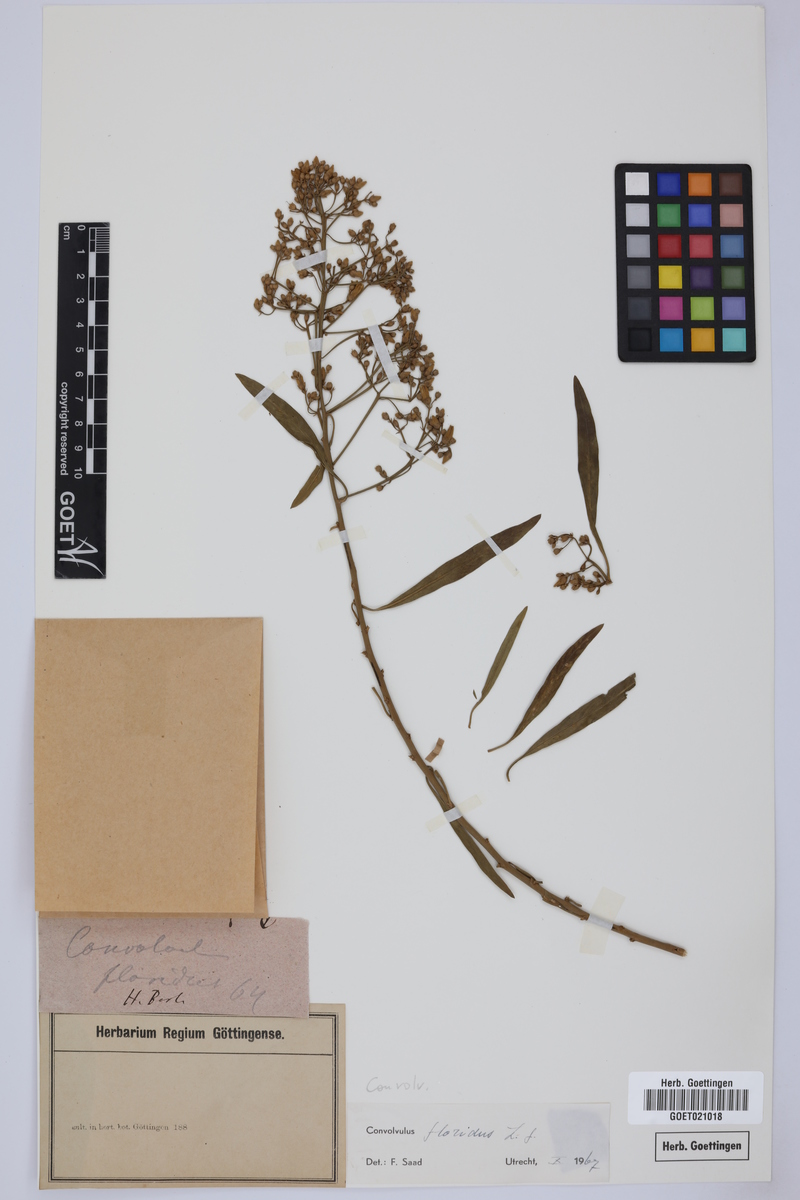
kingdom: Plantae
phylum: Tracheophyta
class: Magnoliopsida
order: Solanales
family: Convolvulaceae
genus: Convolvulus
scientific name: Convolvulus floridus
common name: Guadil
